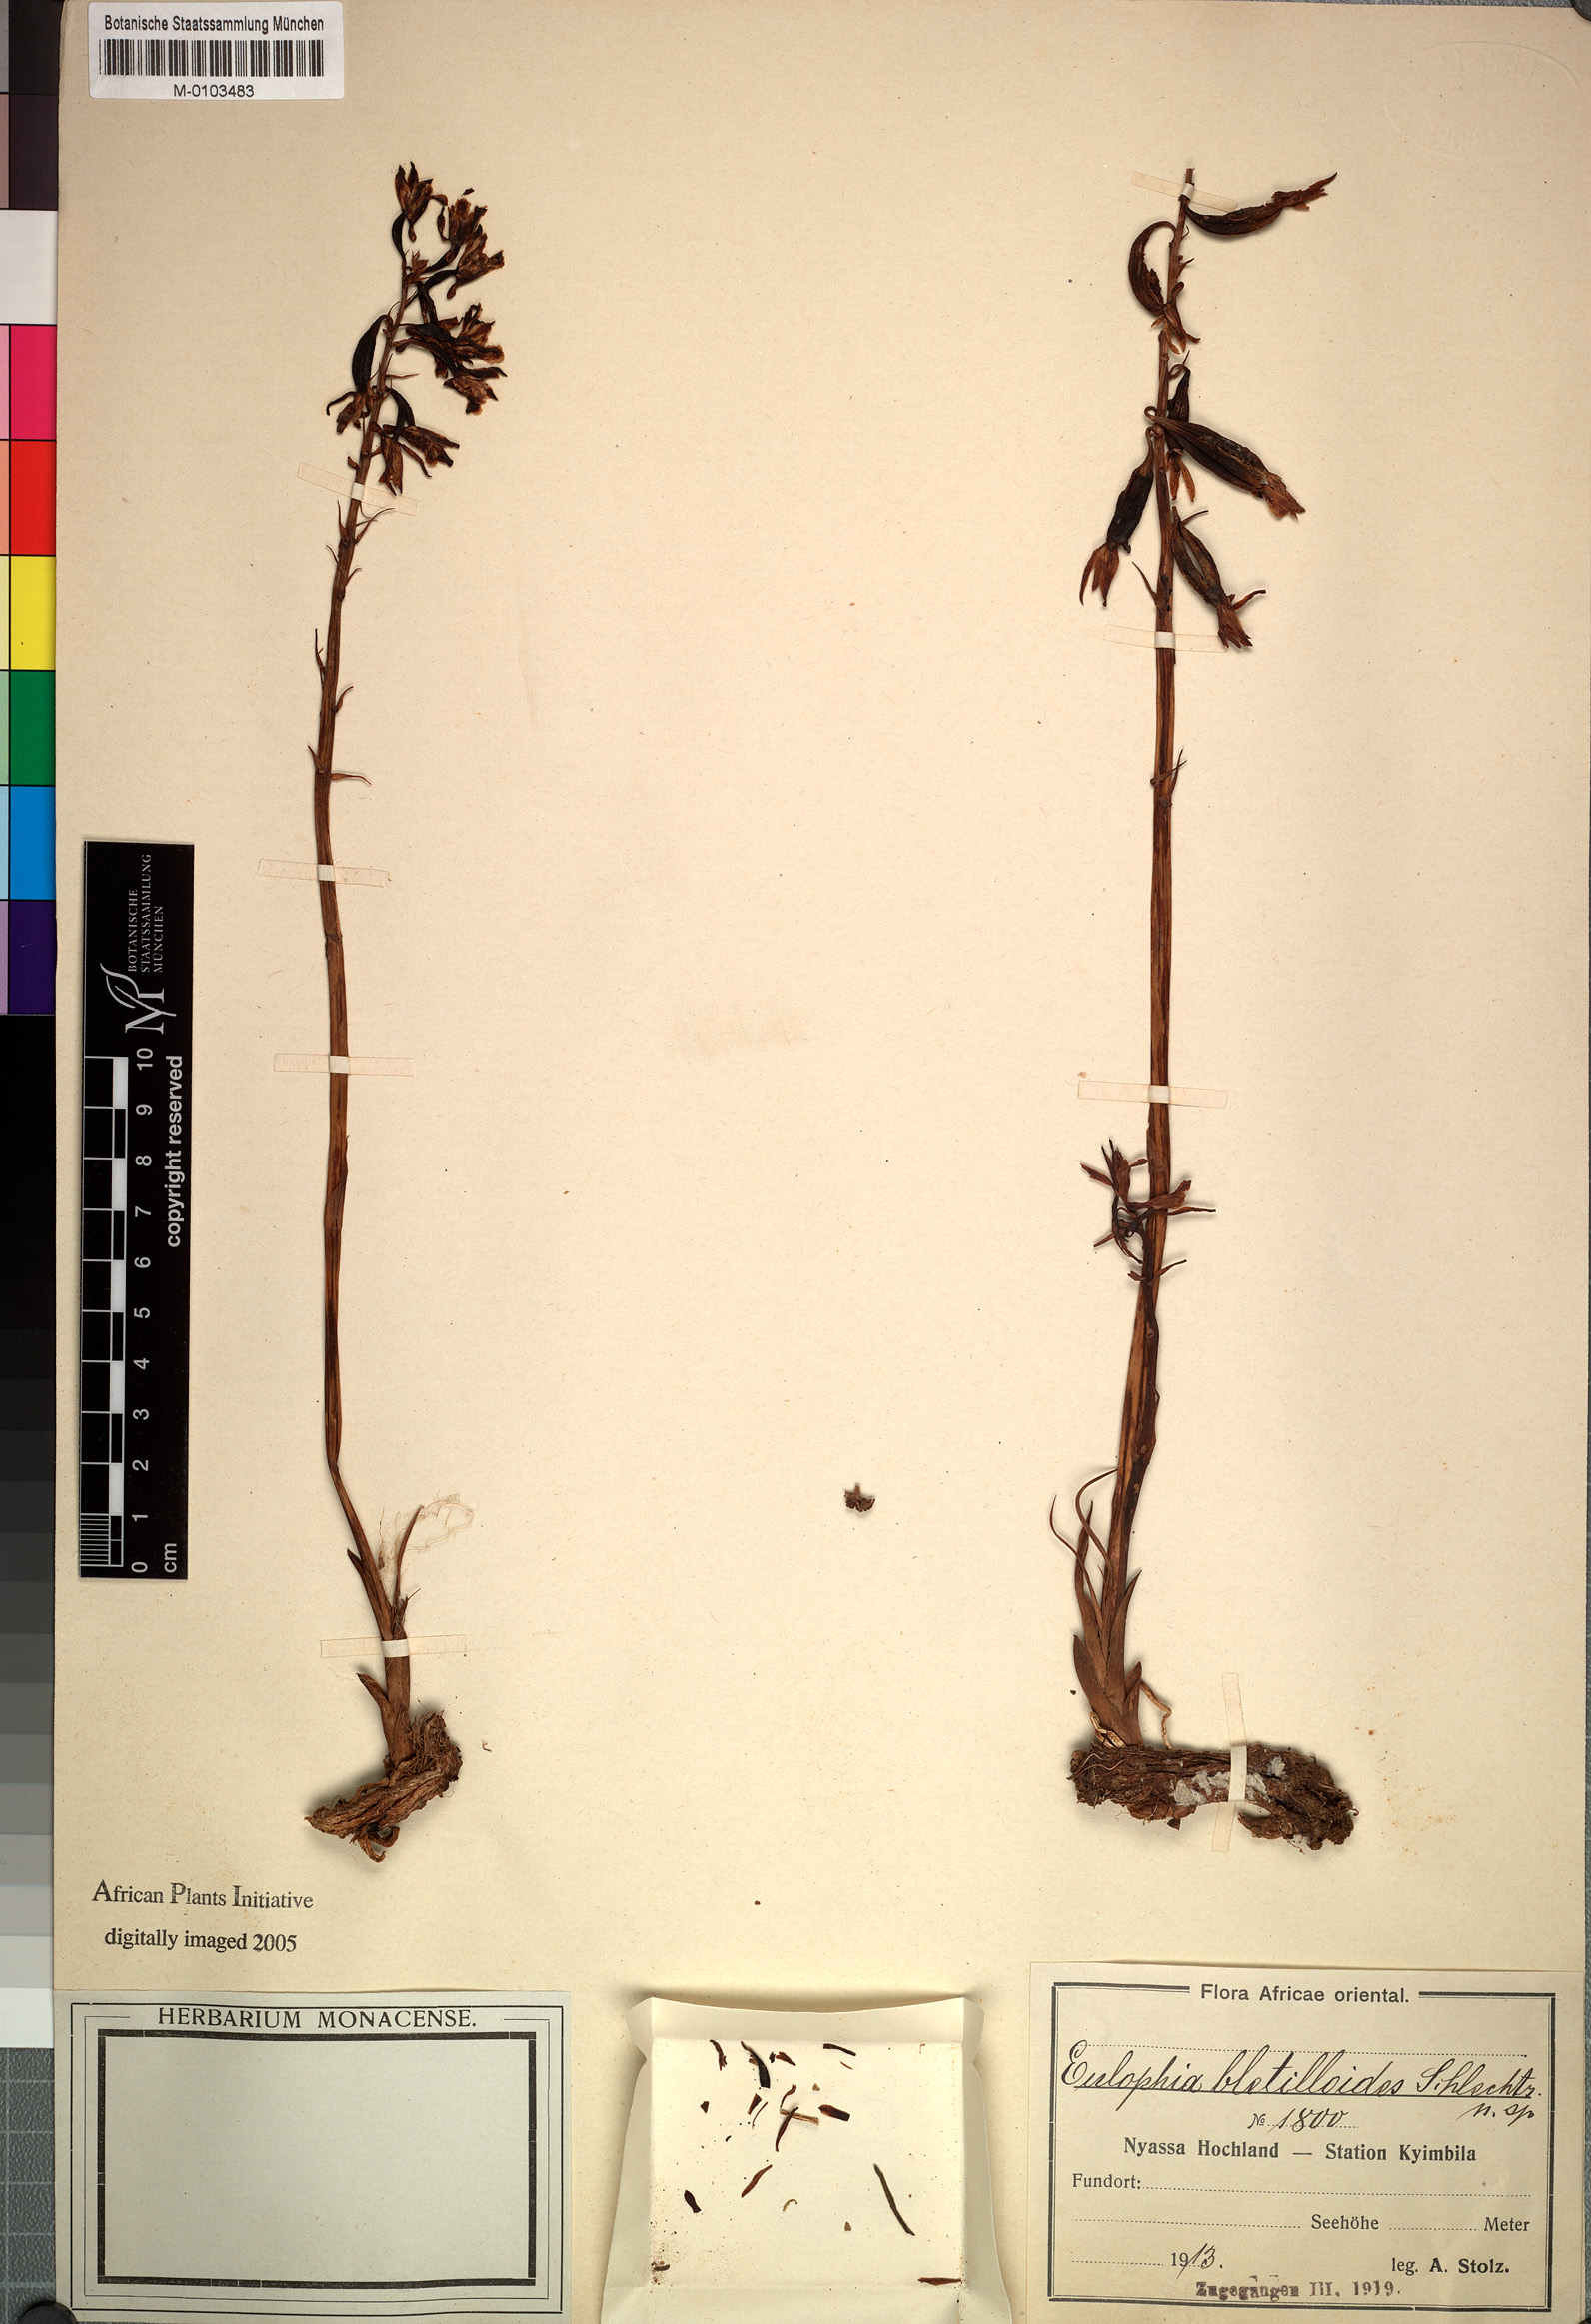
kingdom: Plantae
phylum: Tracheophyta
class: Liliopsida
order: Asparagales
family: Orchidaceae
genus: Eulophia
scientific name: Eulophia nyasae
